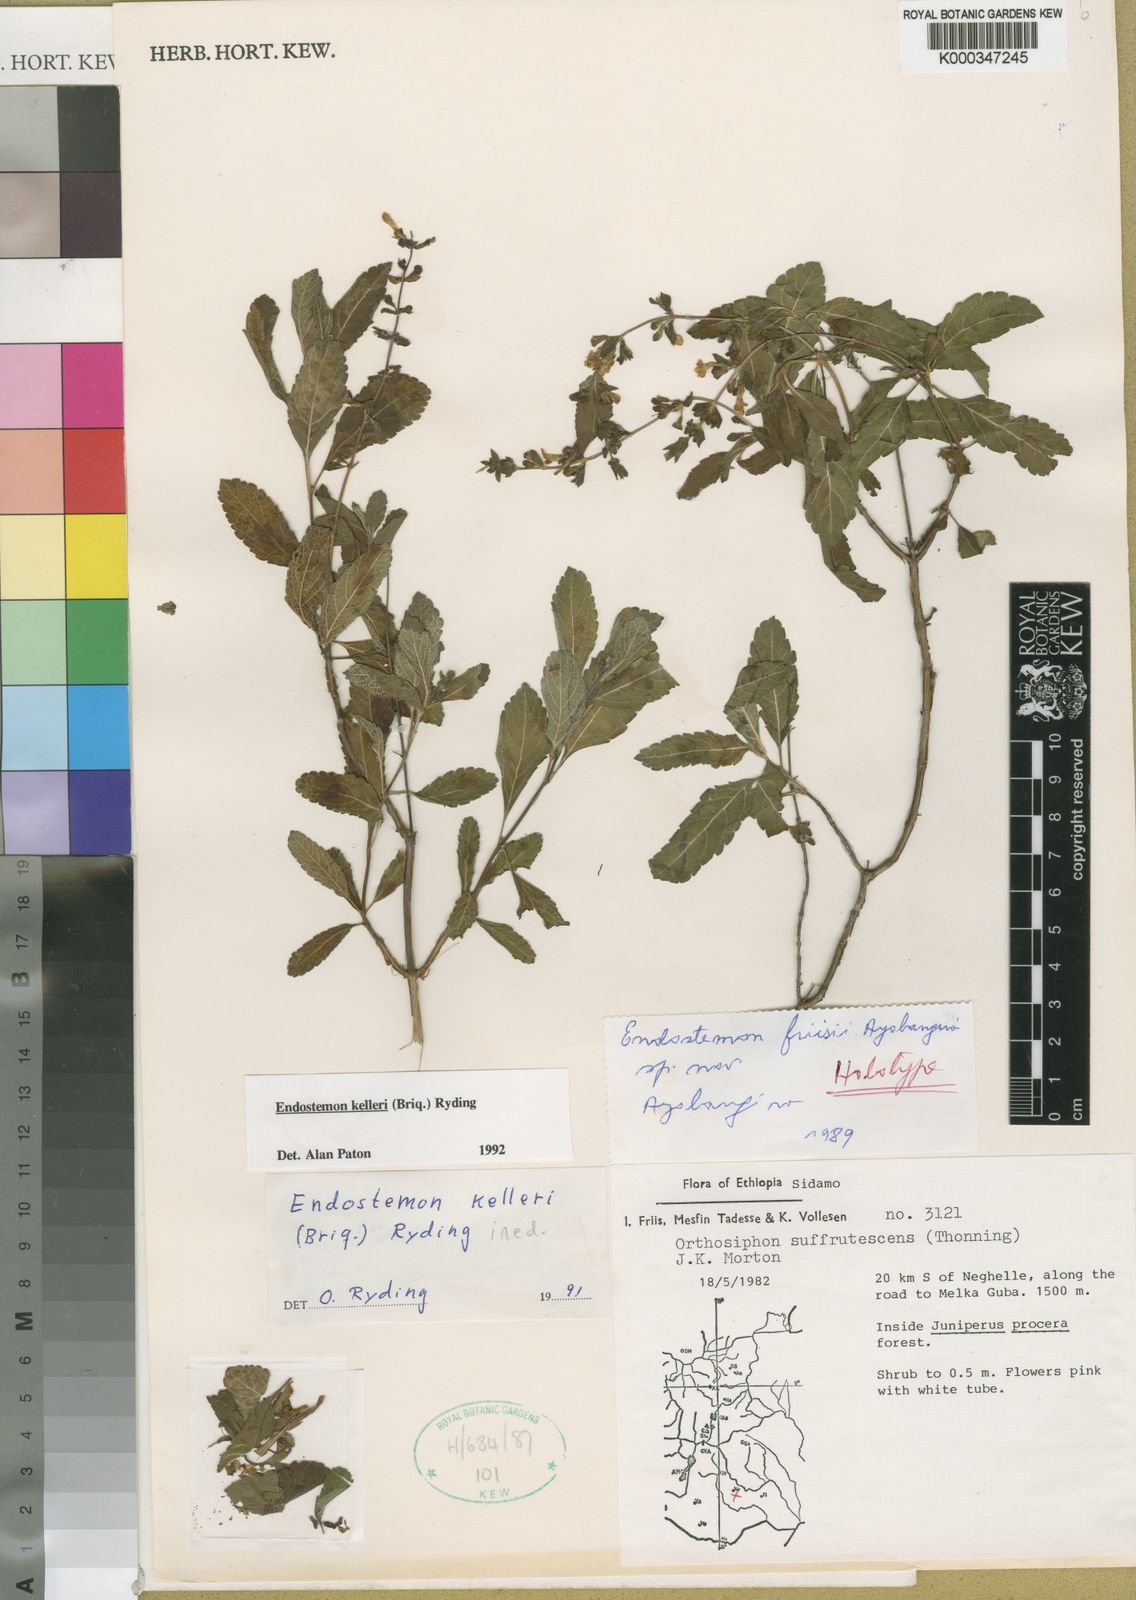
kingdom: Plantae
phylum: Tracheophyta
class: Magnoliopsida
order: Lamiales
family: Lamiaceae
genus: Endostemon
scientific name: Endostemon
